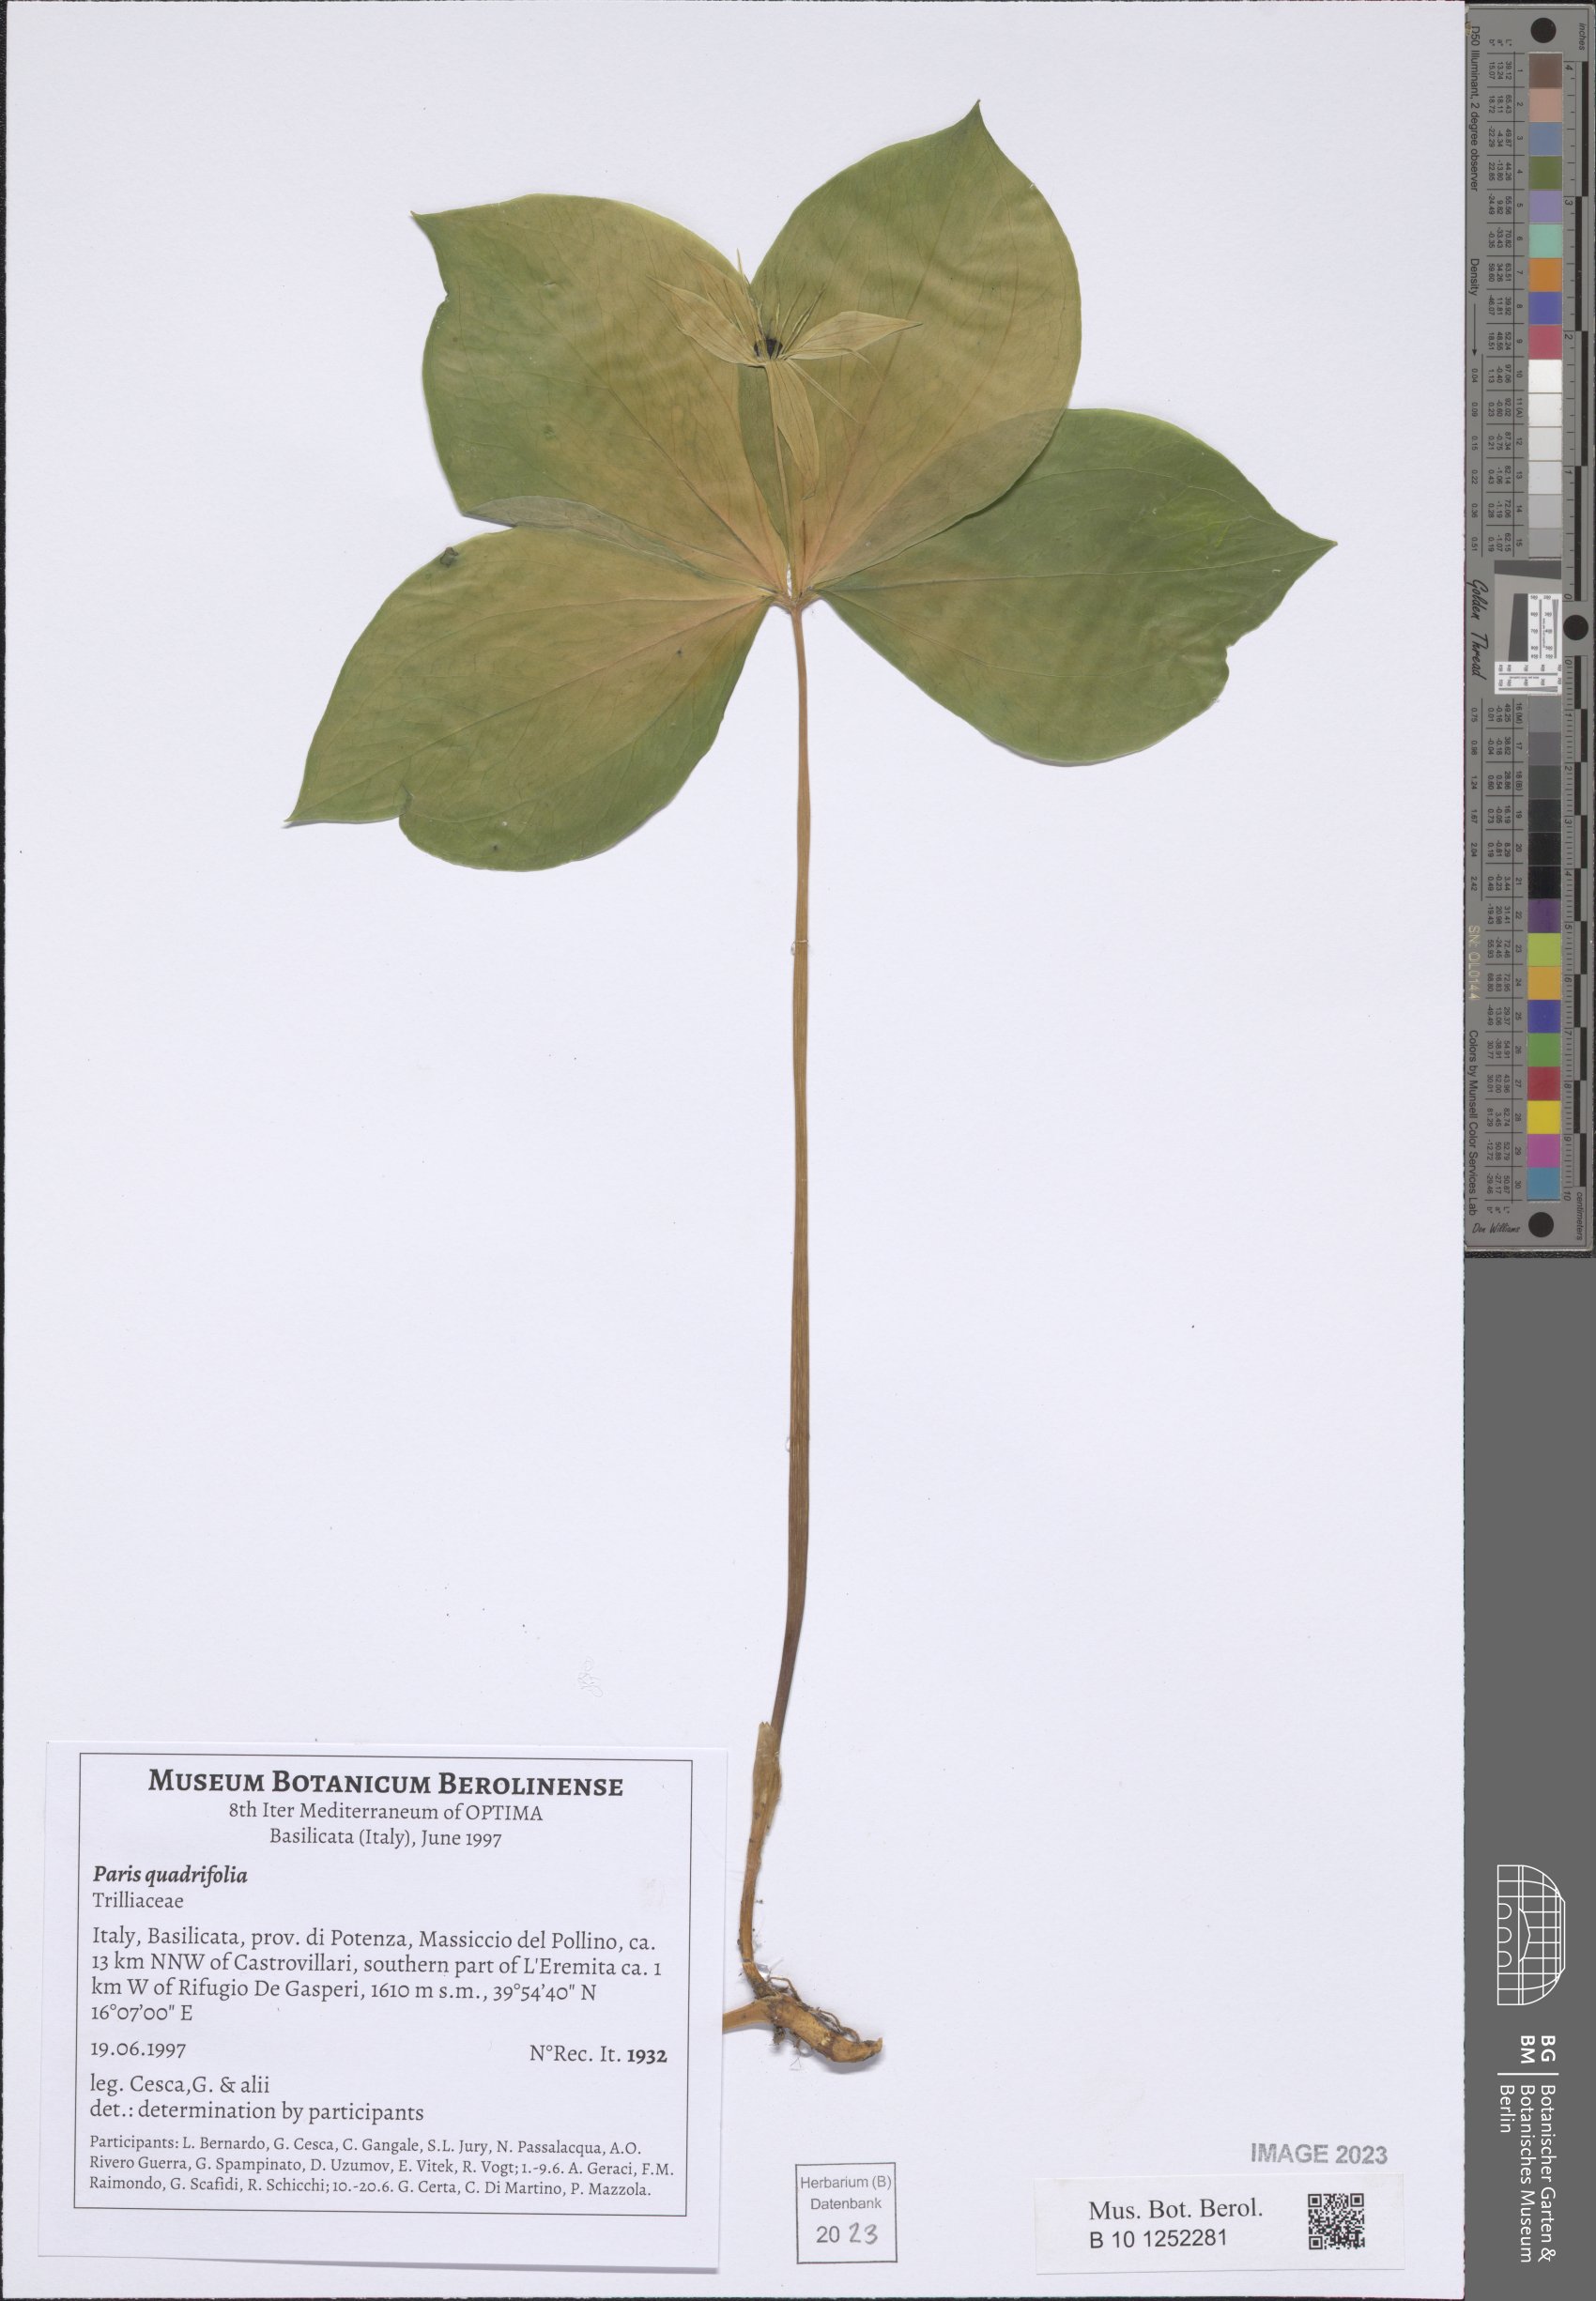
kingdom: Plantae
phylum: Tracheophyta
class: Liliopsida
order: Liliales
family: Melanthiaceae
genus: Paris
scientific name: Paris quadrifolia
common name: Herb-paris
